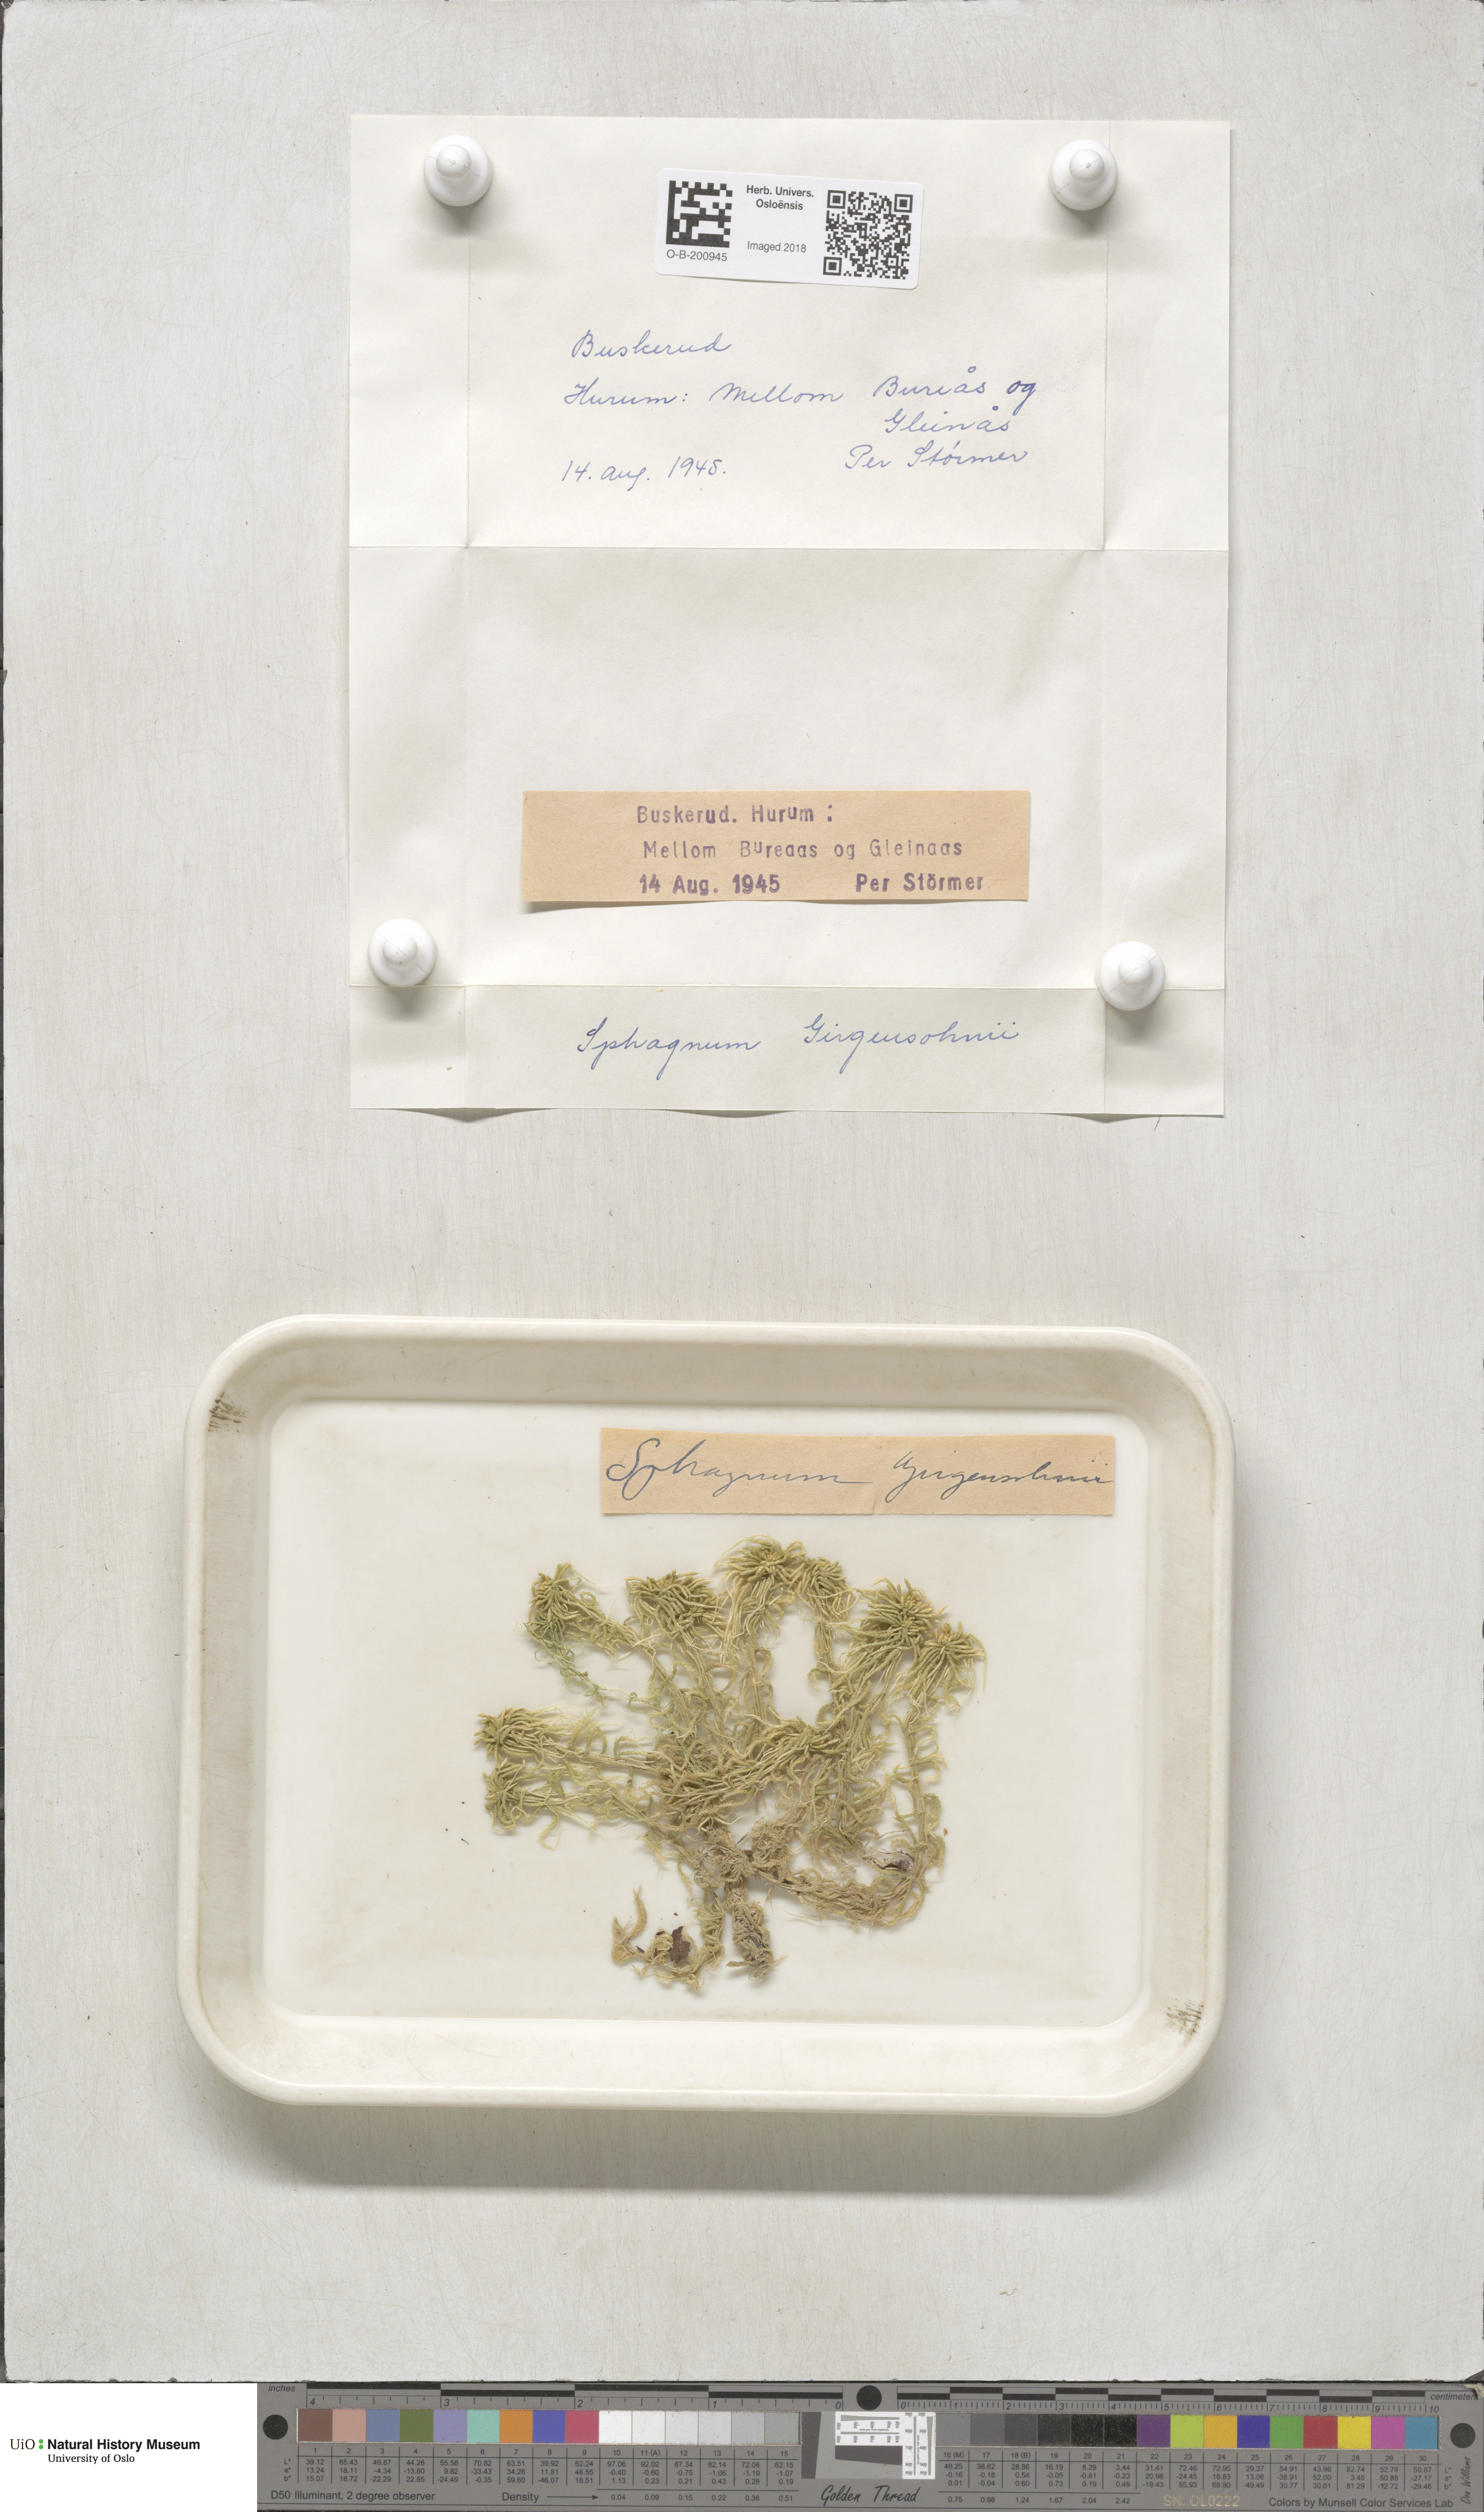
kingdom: Plantae
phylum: Bryophyta
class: Sphagnopsida
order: Sphagnales
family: Sphagnaceae
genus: Sphagnum
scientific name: Sphagnum girgensohnii
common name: Girgensohn's peat moss
